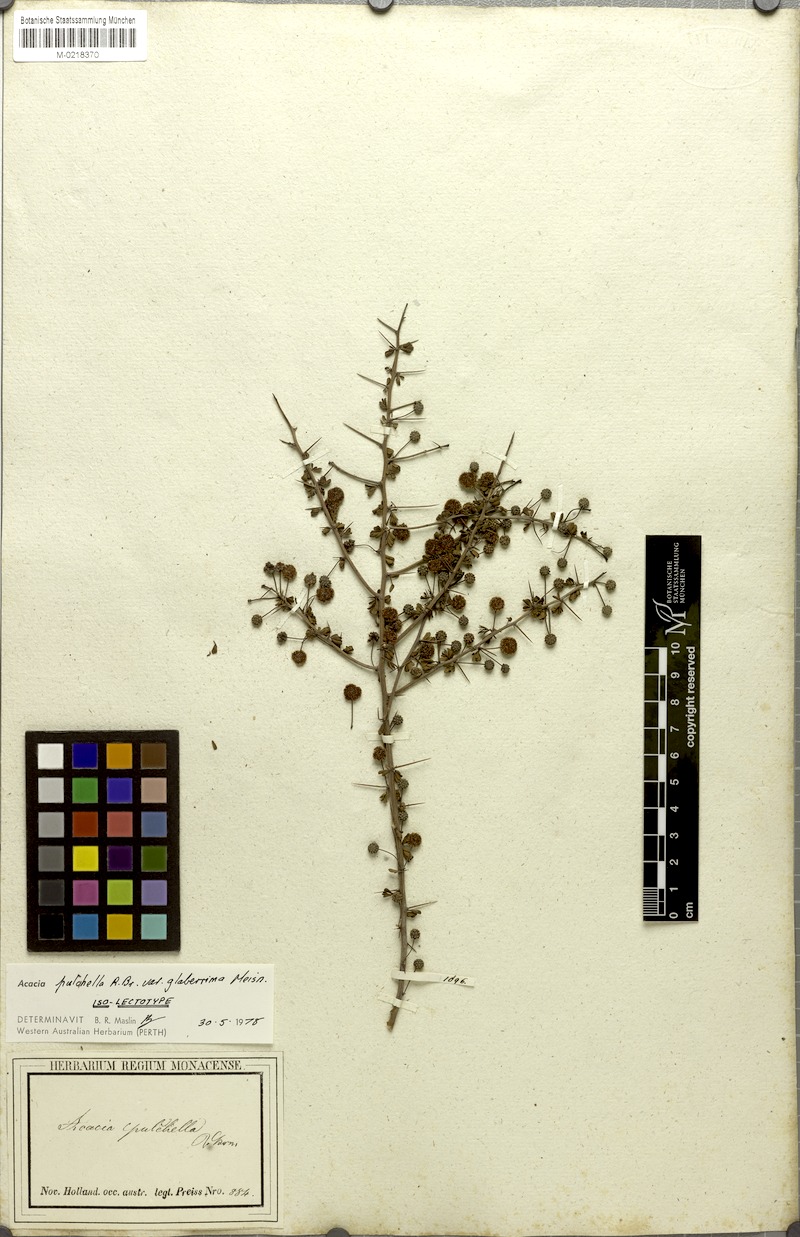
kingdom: Plantae
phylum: Tracheophyta
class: Magnoliopsida
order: Fabales
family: Fabaceae
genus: Acacia
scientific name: Acacia pulchella
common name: Prickly moses
